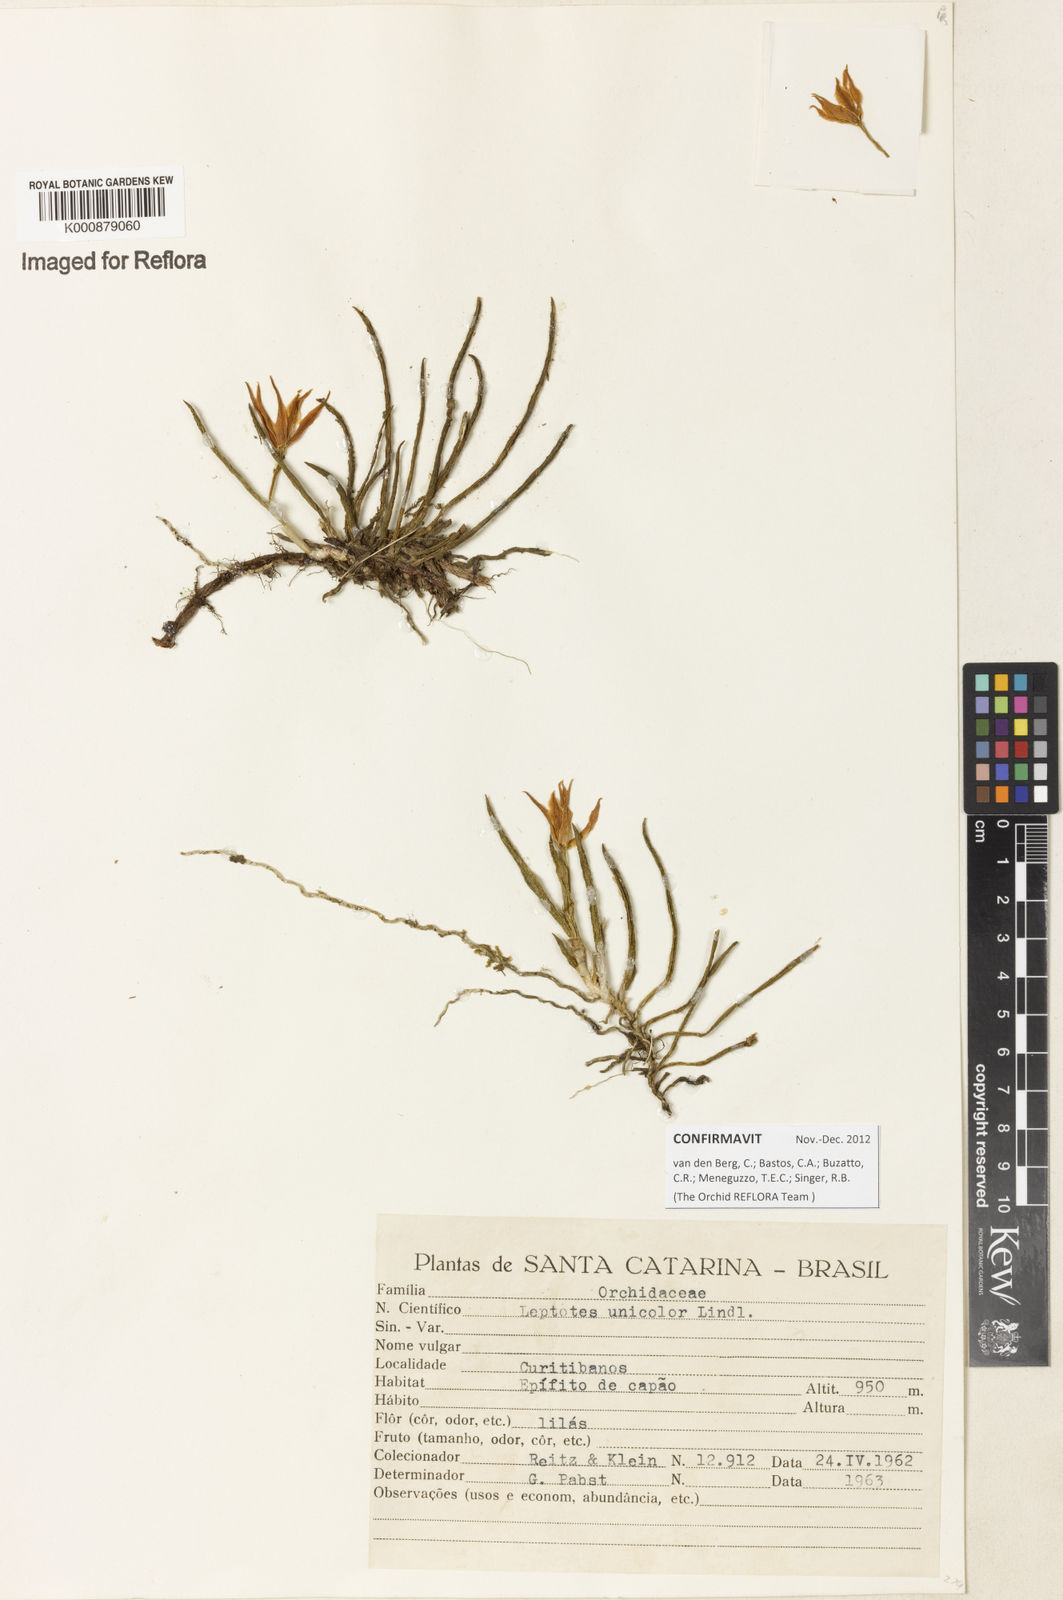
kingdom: Plantae
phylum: Tracheophyta
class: Liliopsida
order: Asparagales
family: Orchidaceae
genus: Leptotes
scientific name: Leptotes unicolor
